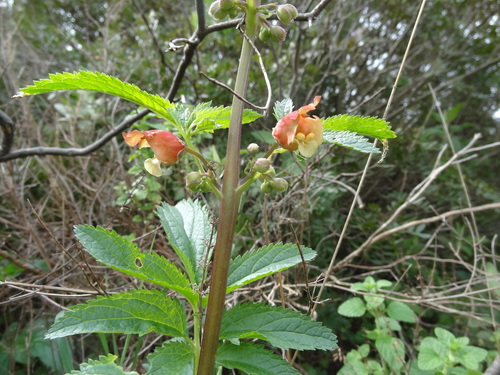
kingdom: Plantae
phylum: Tracheophyta
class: Magnoliopsida
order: Lamiales
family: Scrophulariaceae
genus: Scrophularia
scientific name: Scrophularia sambucifolia
